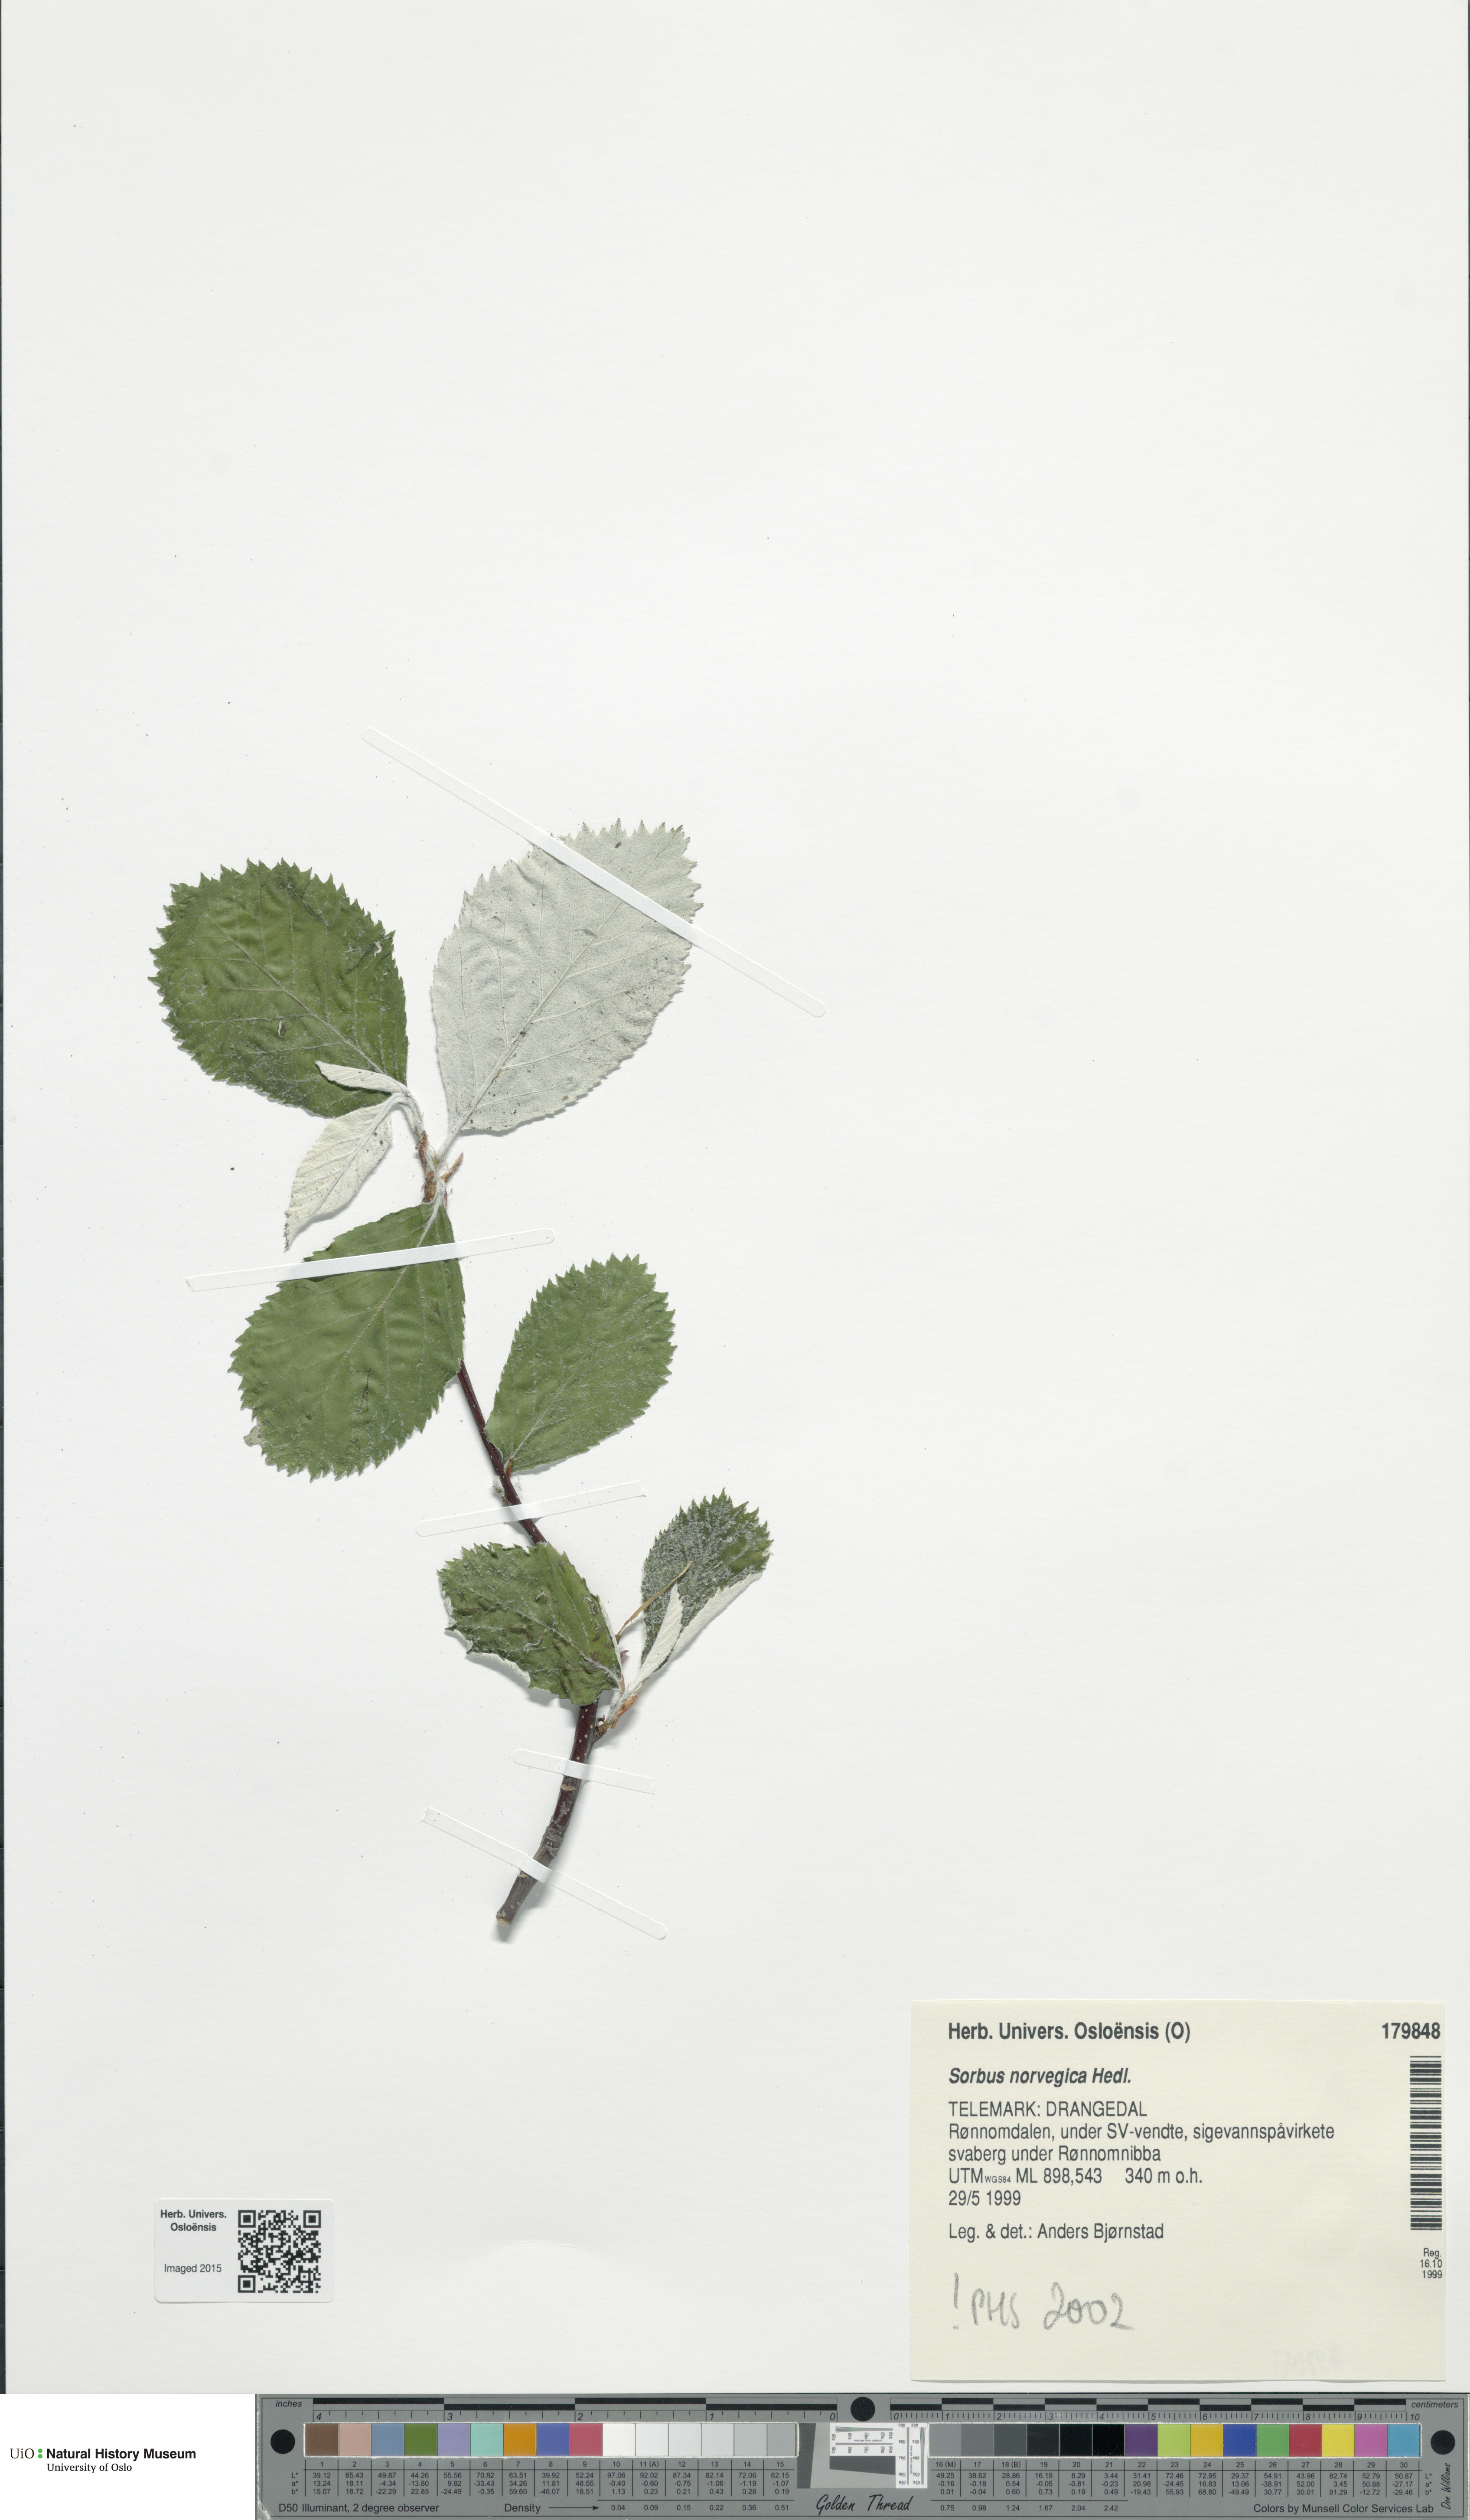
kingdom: Plantae
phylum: Tracheophyta
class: Magnoliopsida
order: Rosales
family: Rosaceae
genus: Aria
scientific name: Aria obtusifolia
